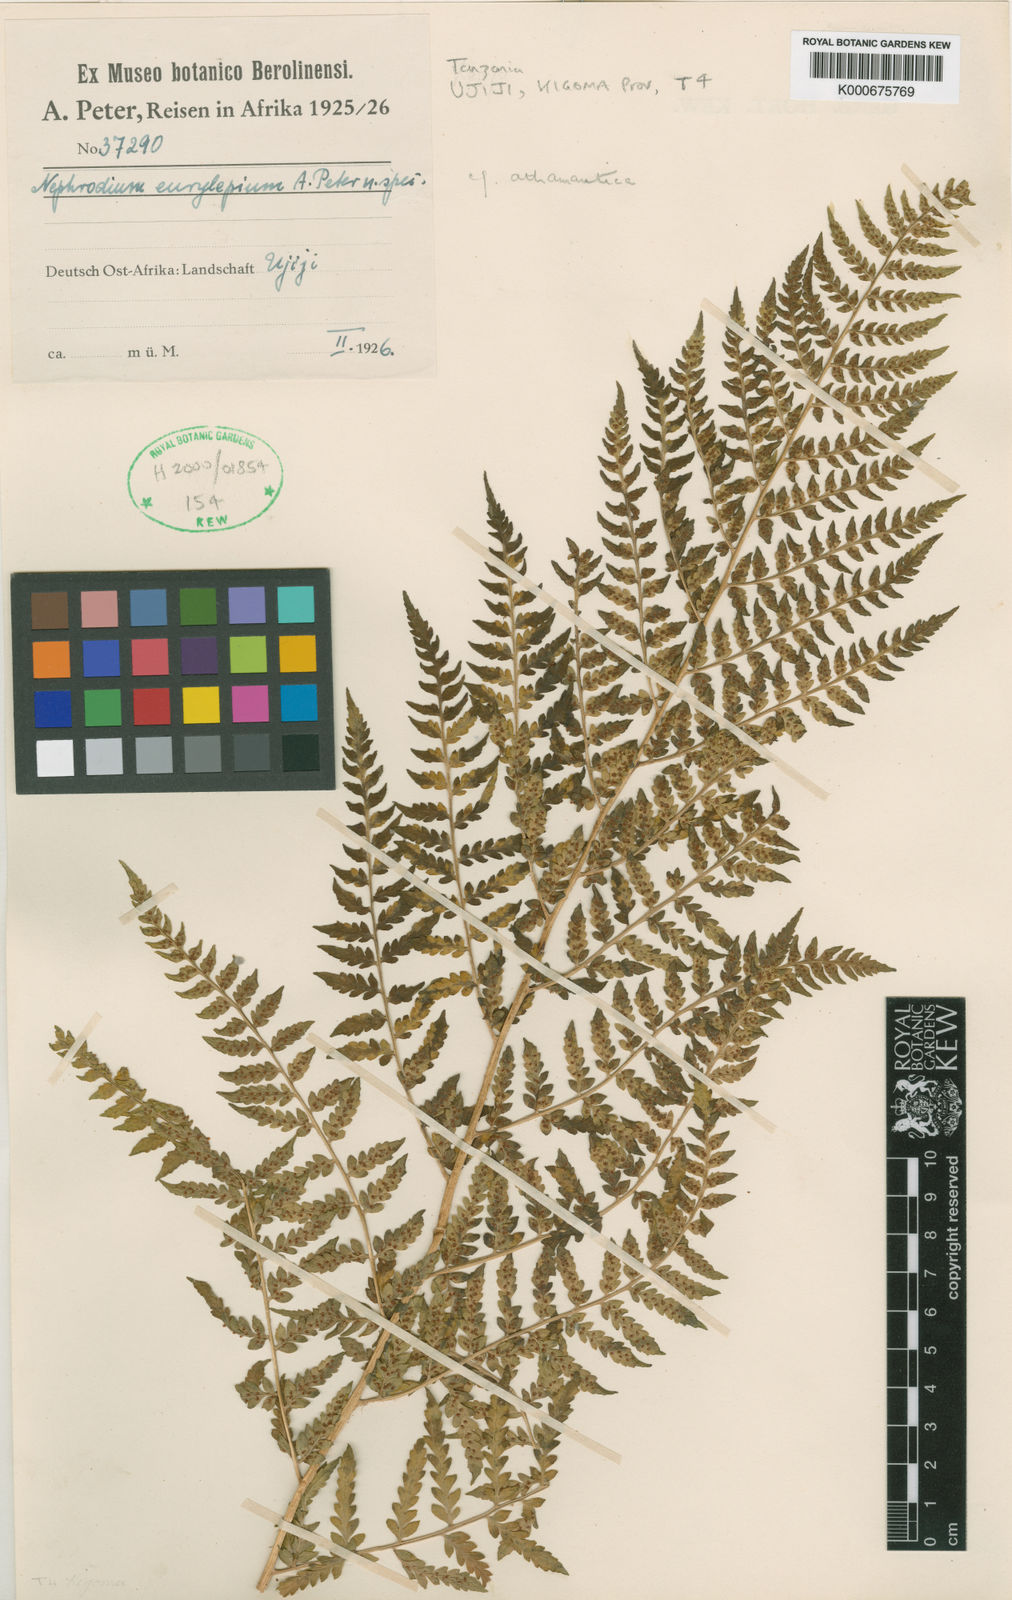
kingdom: Plantae
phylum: Tracheophyta
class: Polypodiopsida
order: Polypodiales
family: Dryopteridaceae
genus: Dryopteris
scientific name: Dryopteris athamantica
